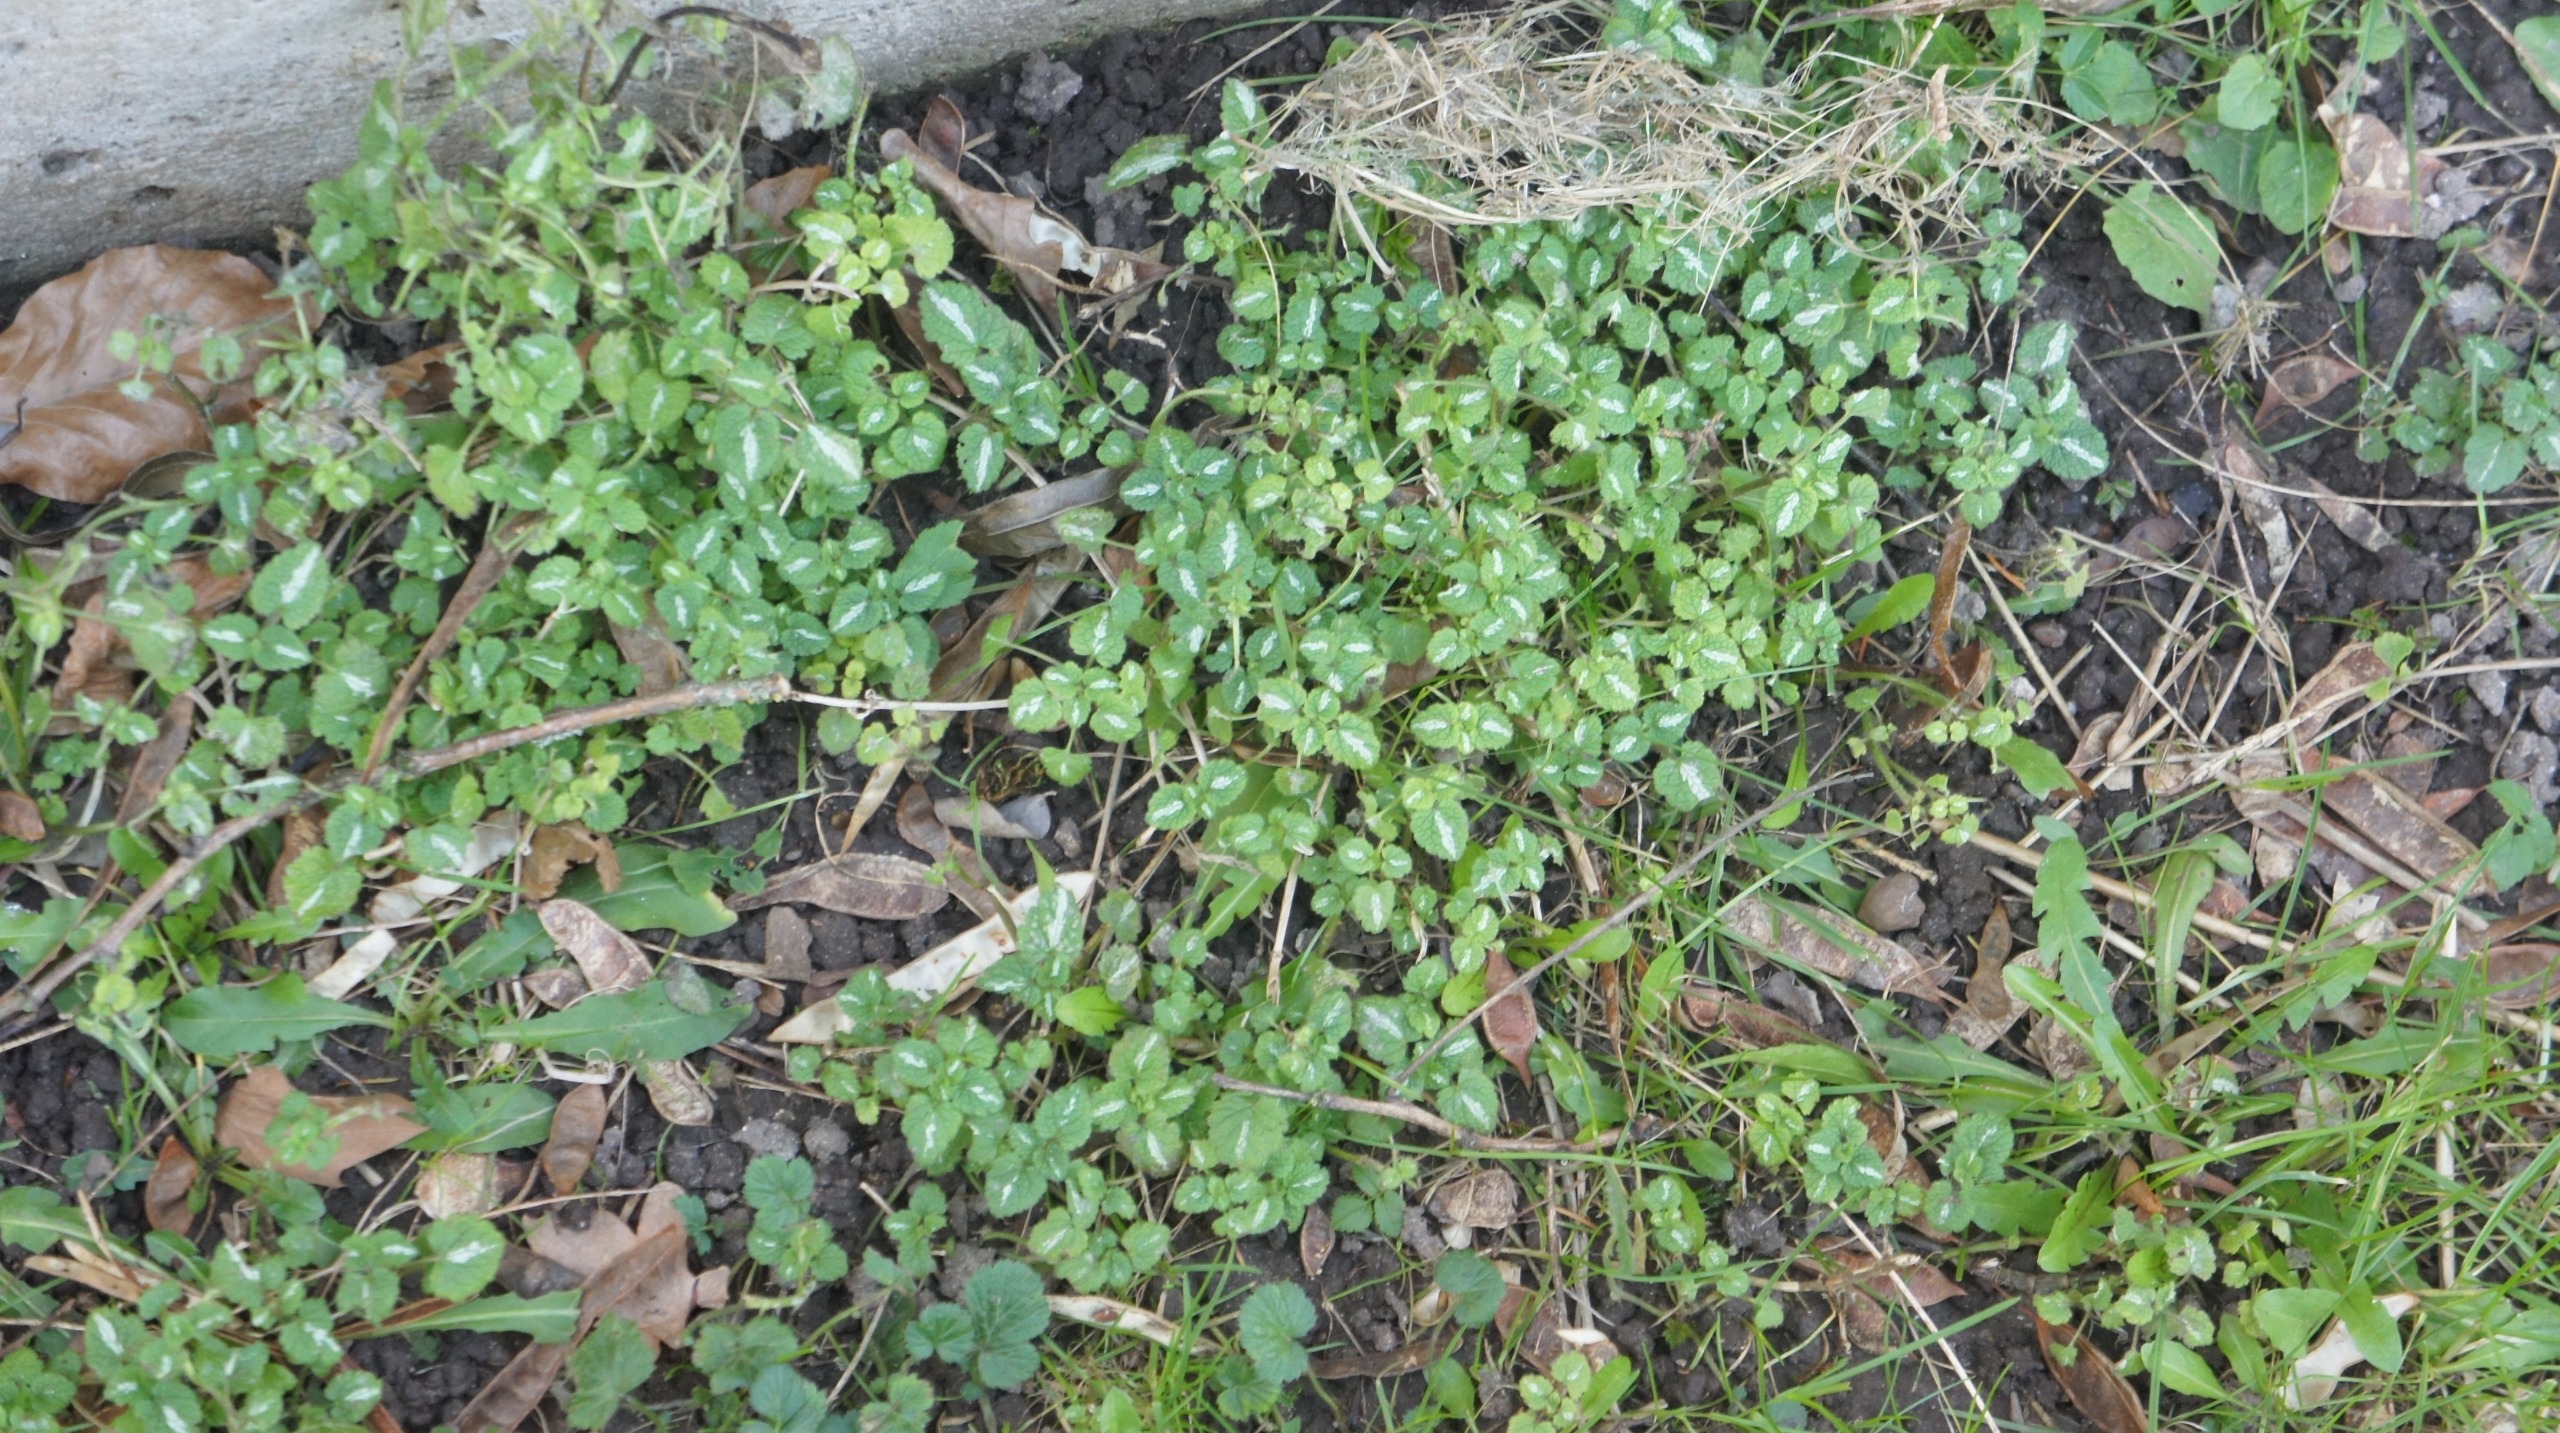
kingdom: Plantae
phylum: Tracheophyta
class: Magnoliopsida
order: Lamiales
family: Lamiaceae
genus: Lamium
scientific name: Lamium maculatum
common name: Plettet tvetand
